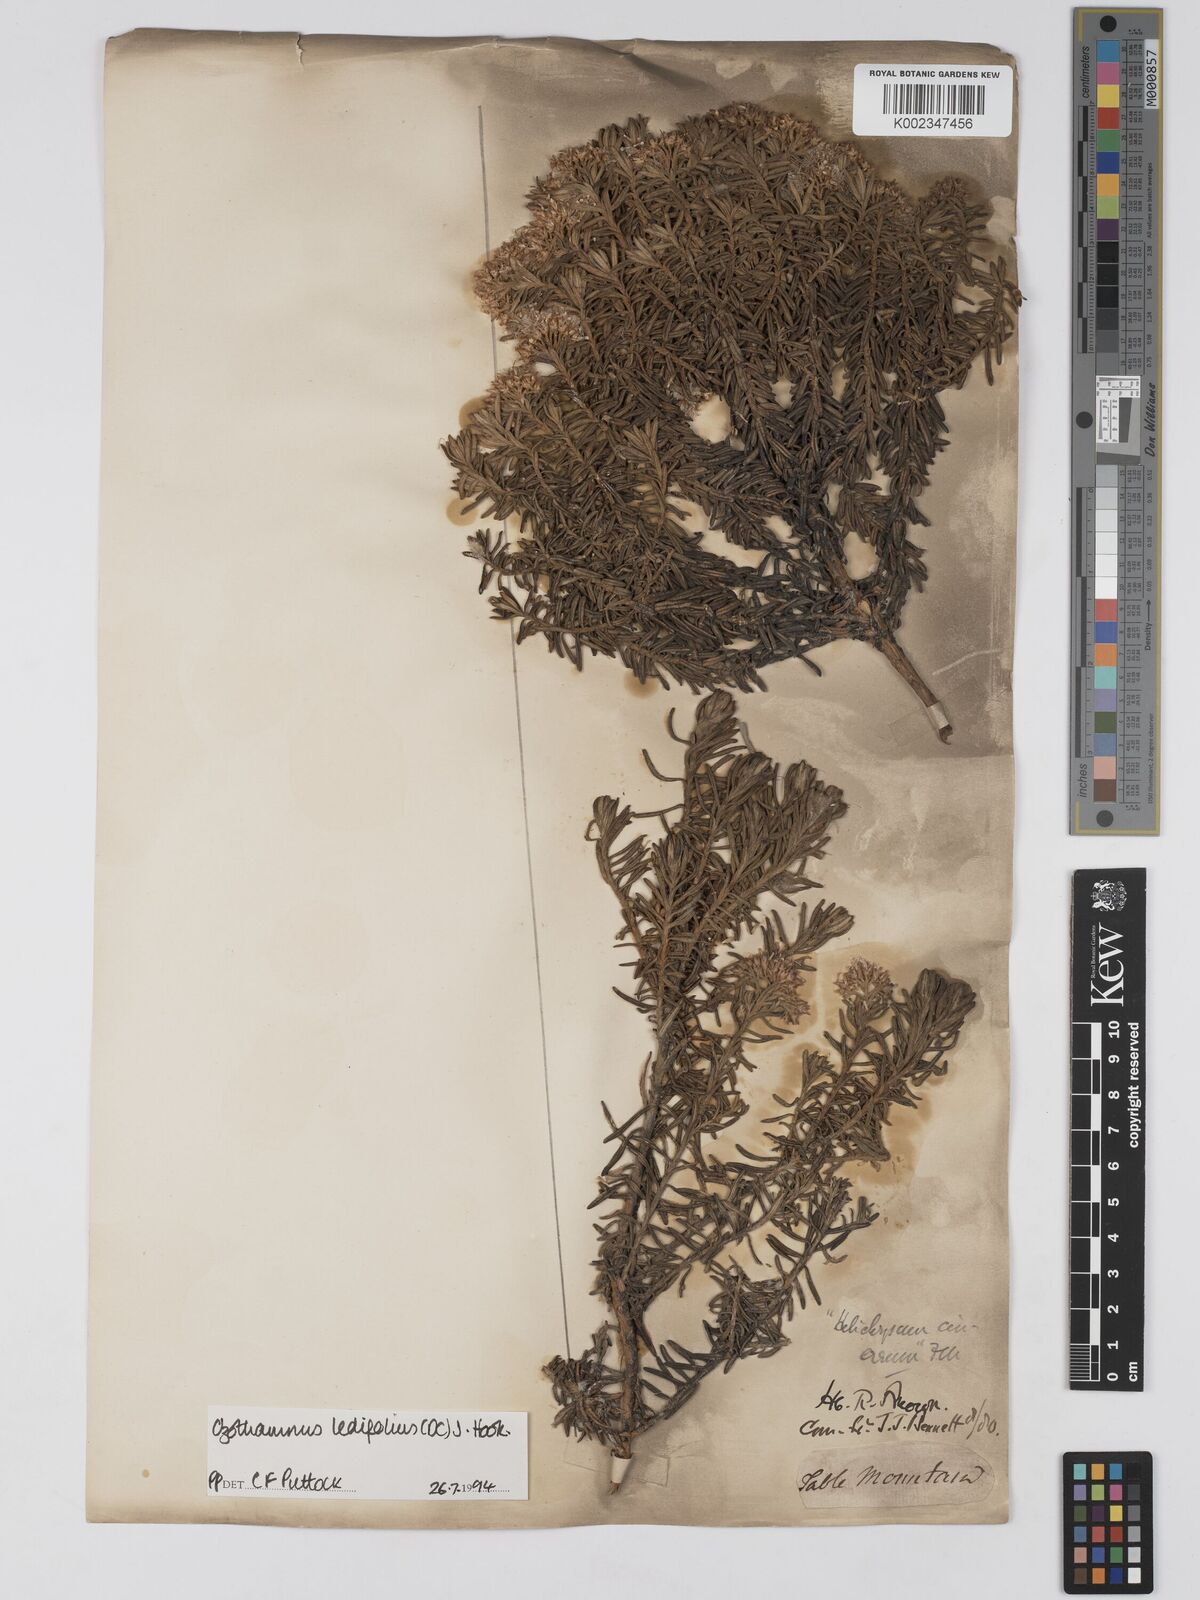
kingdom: Plantae
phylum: Tracheophyta
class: Magnoliopsida
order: Asterales
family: Asteraceae
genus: Ozothamnus
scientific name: Ozothamnus ledifolius
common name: Kerosene-weed
